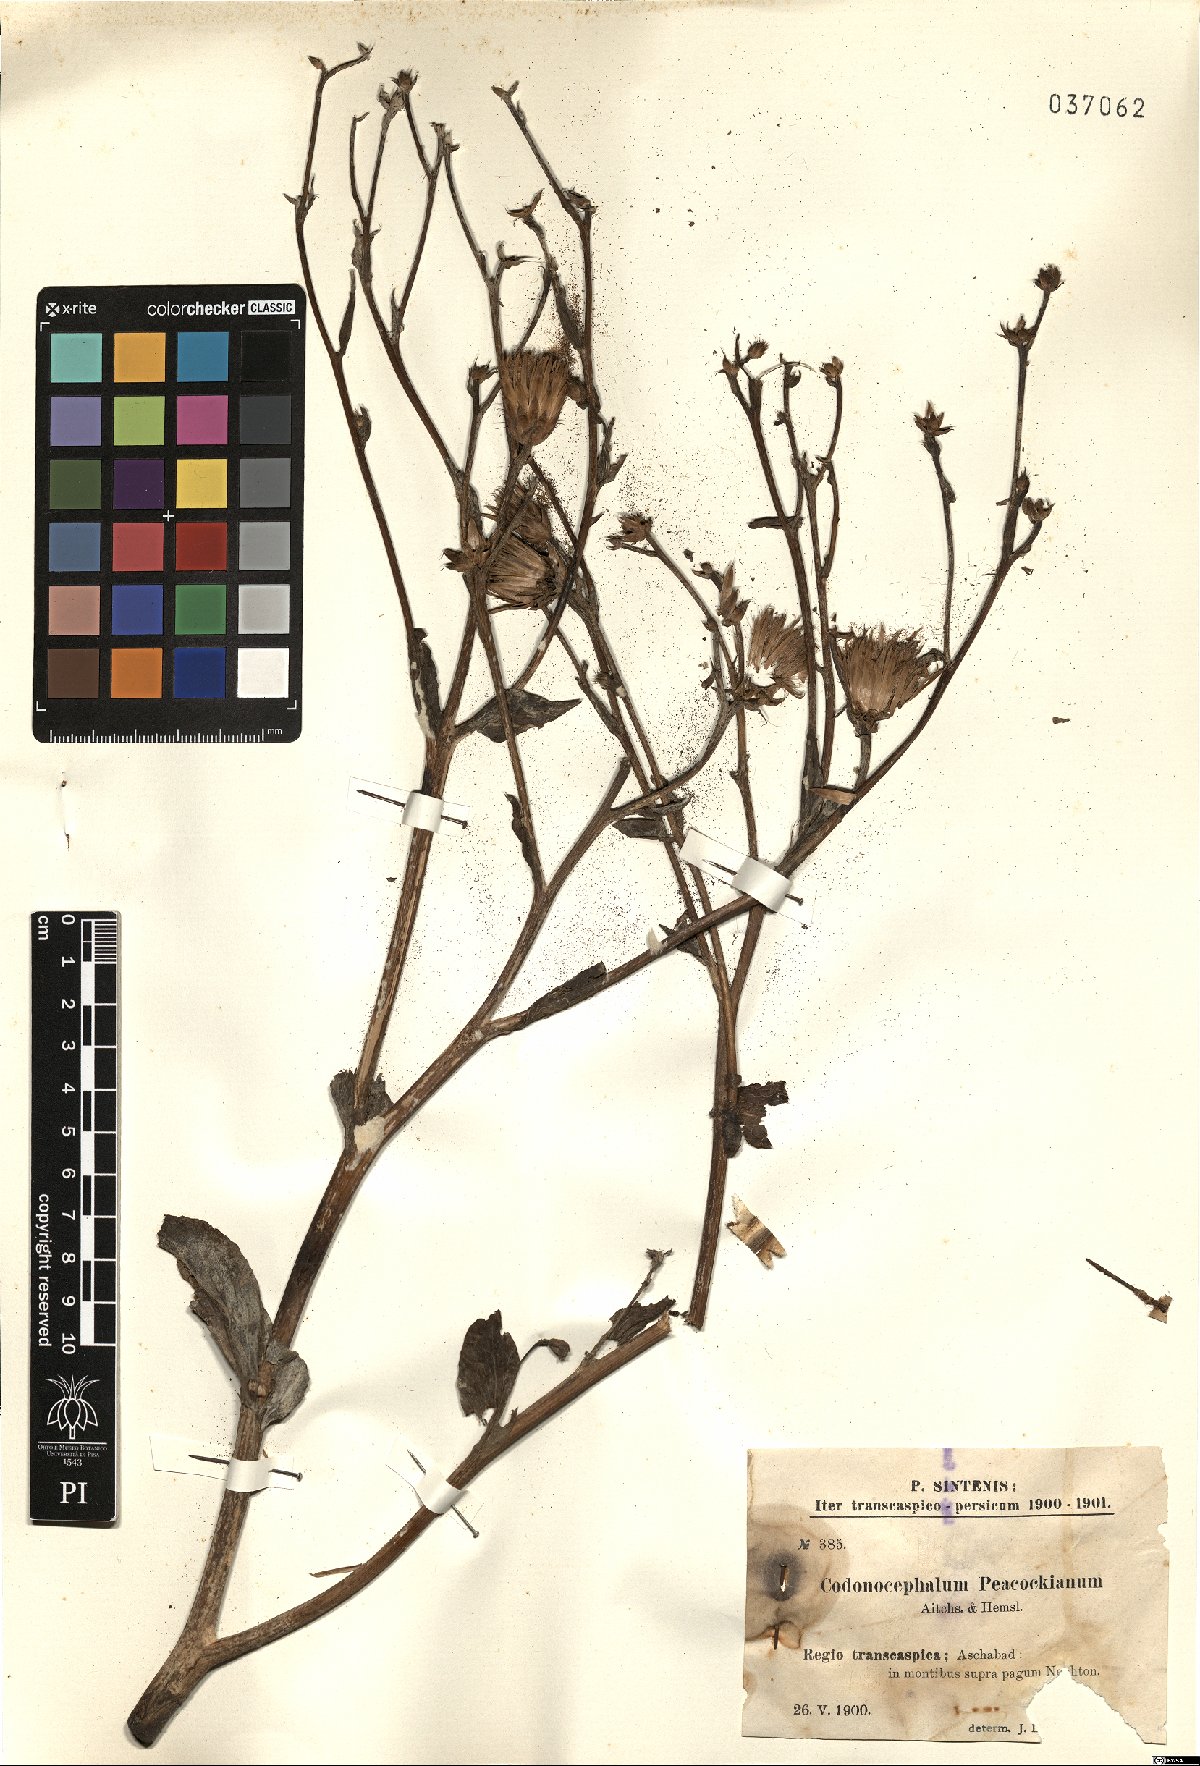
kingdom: Plantae
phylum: Tracheophyta
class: Magnoliopsida
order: Asterales
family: Asteraceae
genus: Inula
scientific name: Inula peacockiana
